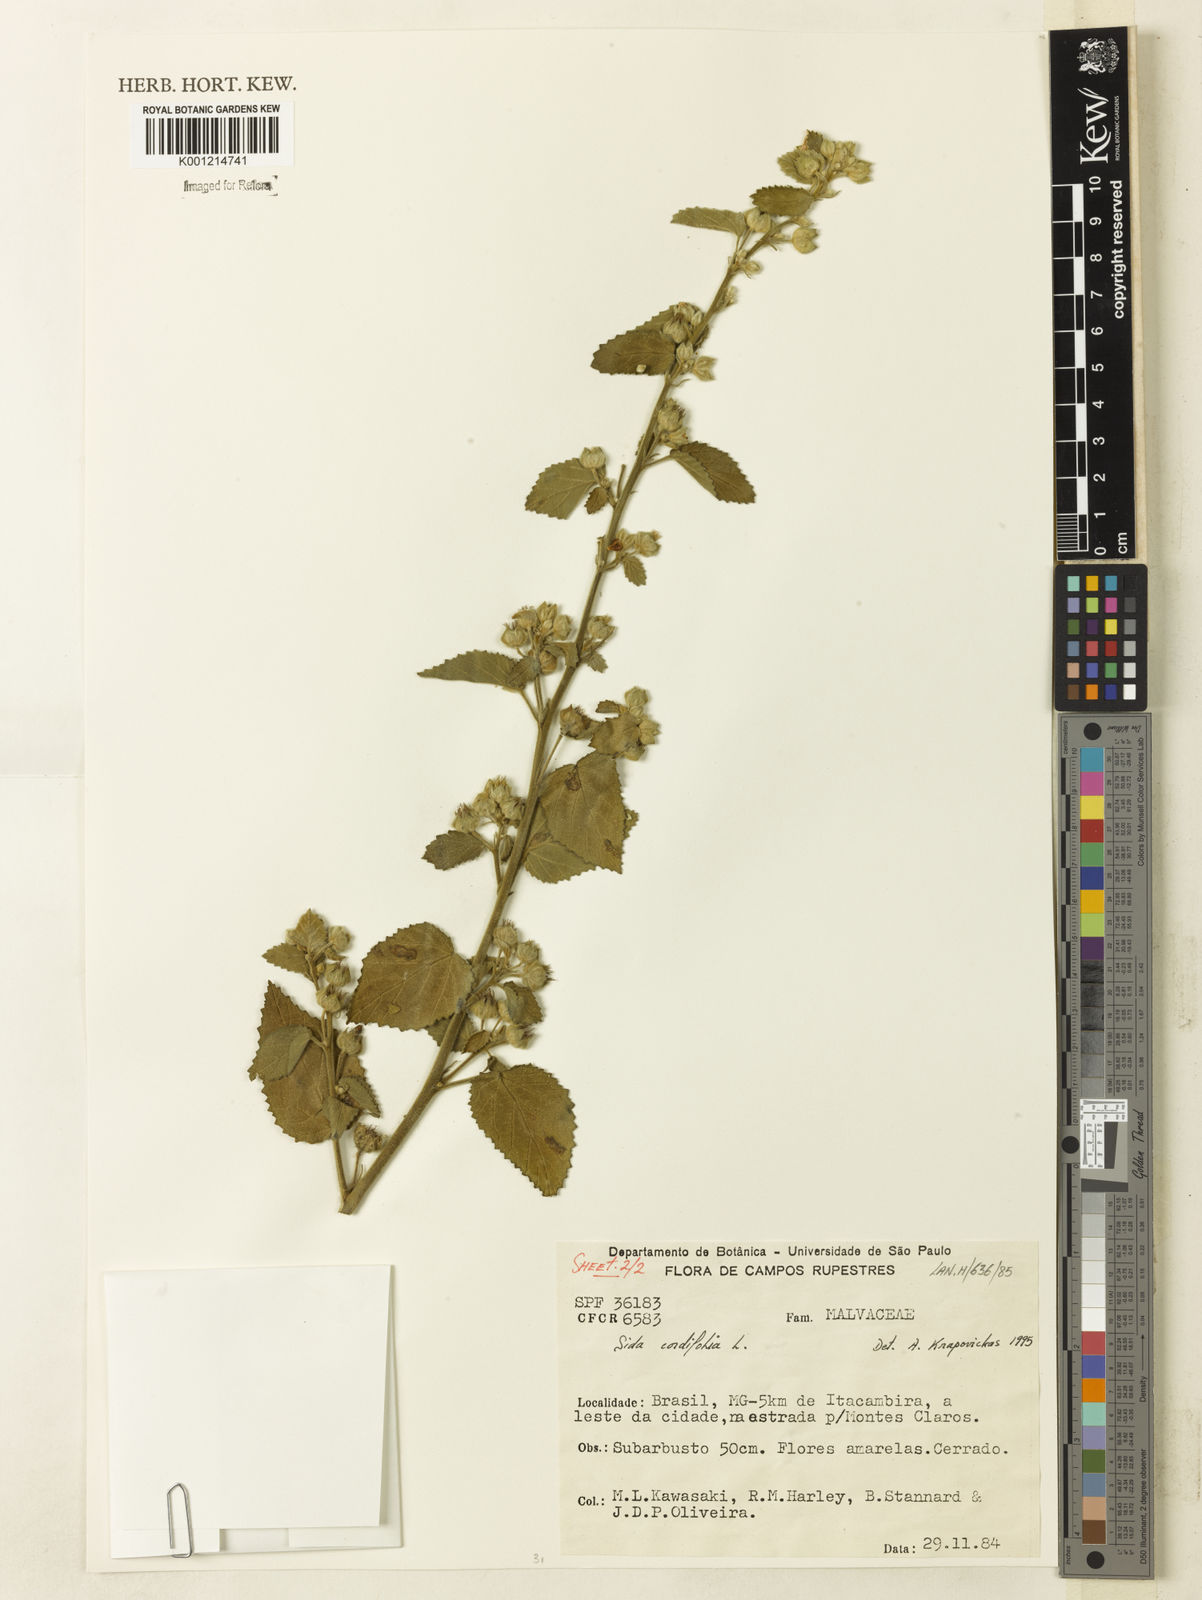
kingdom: Plantae
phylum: Tracheophyta
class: Magnoliopsida
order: Malvales
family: Malvaceae
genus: Sida
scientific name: Sida cordifolia
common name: Ilima
